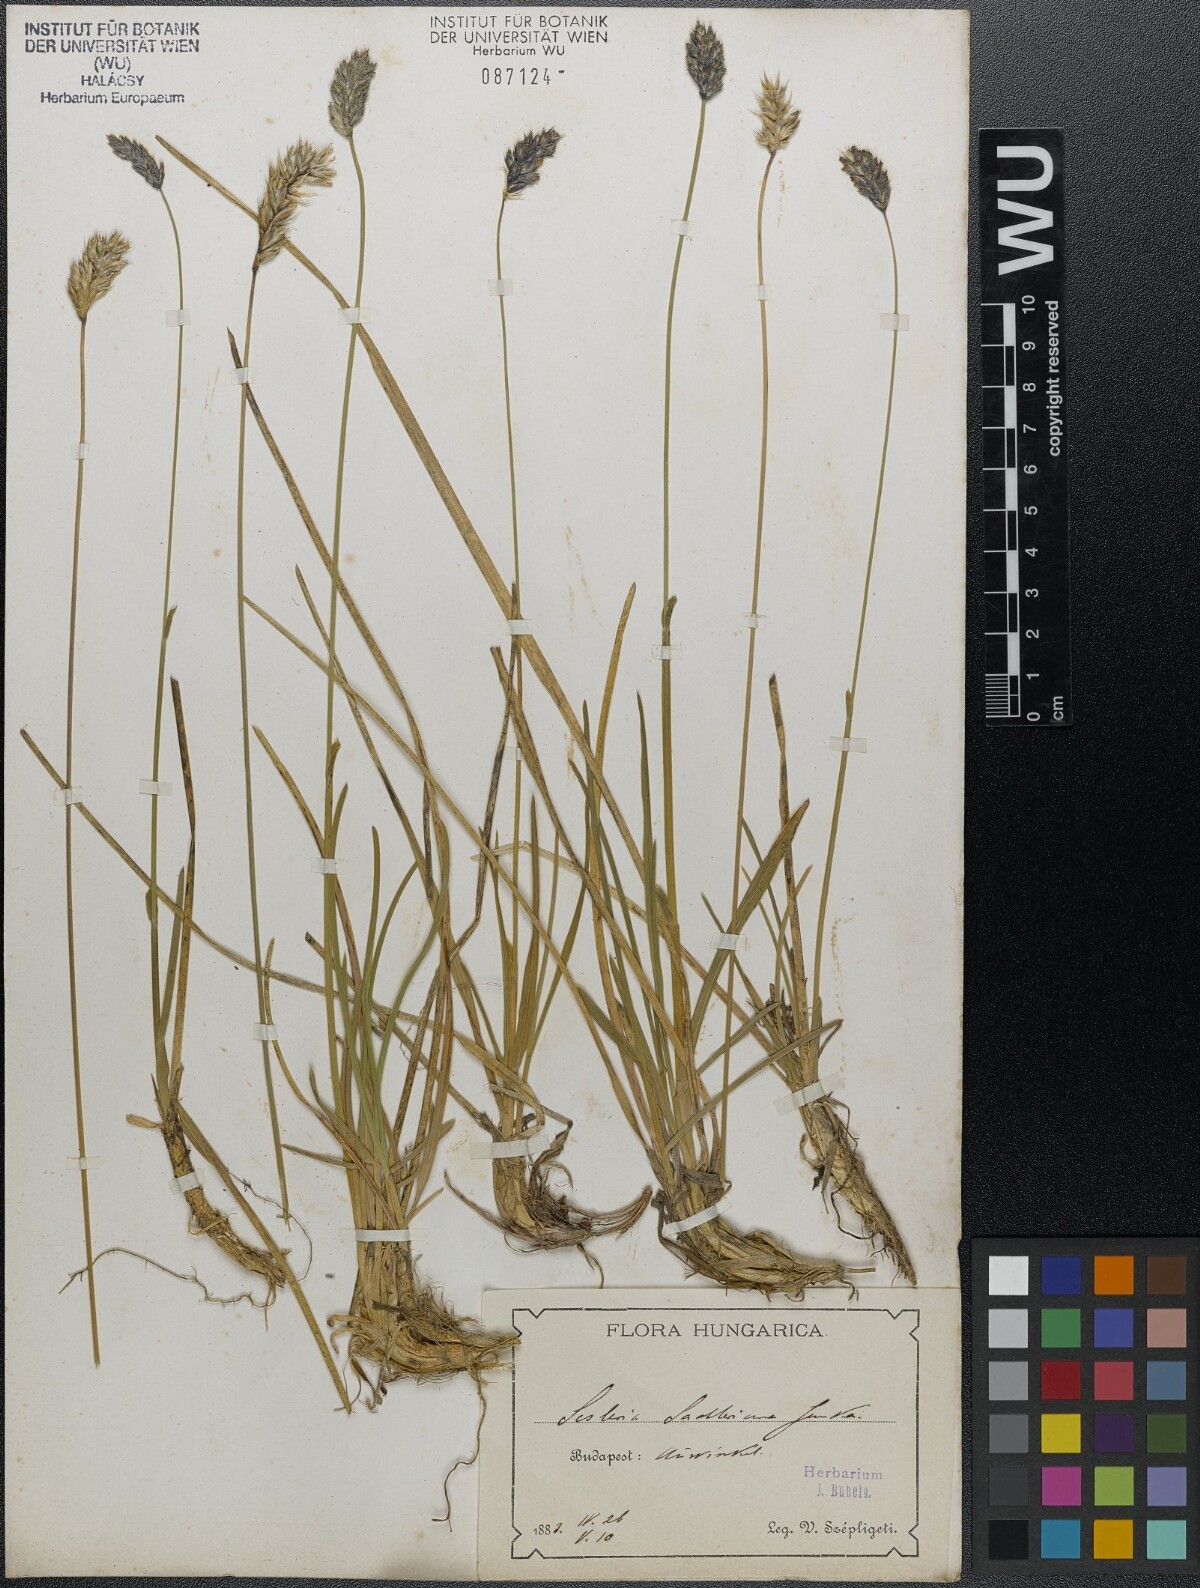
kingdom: Plantae
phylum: Tracheophyta
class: Liliopsida
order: Poales
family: Poaceae
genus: Sesleria
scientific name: Sesleria sadleriana
